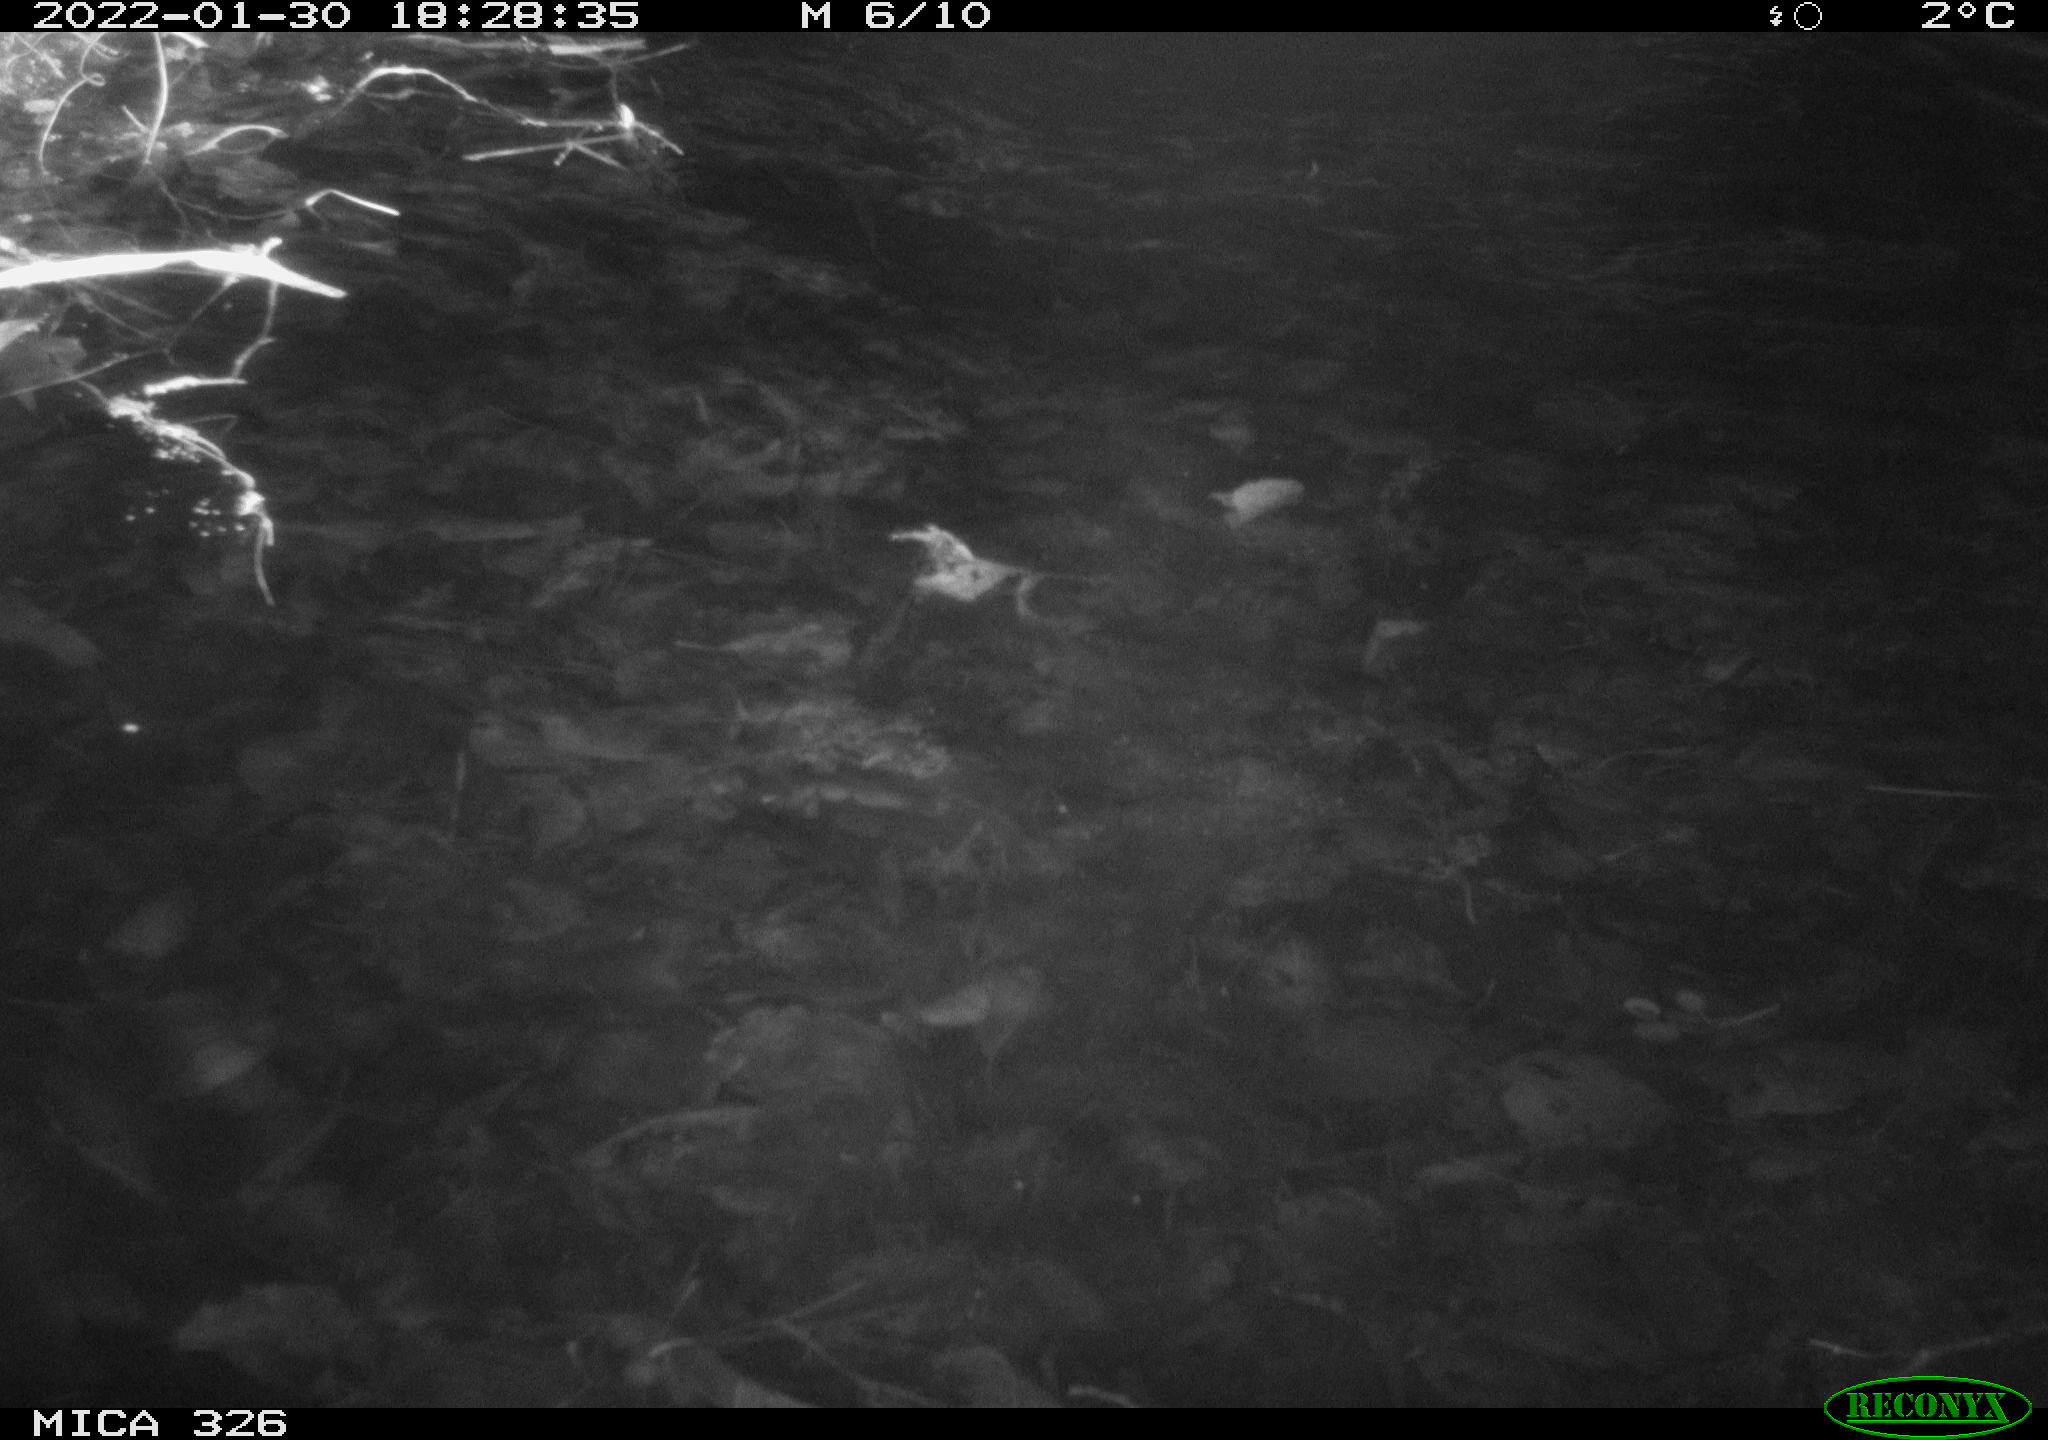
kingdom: Animalia
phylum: Chordata
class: Mammalia
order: Rodentia
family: Cricetidae
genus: Ondatra
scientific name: Ondatra zibethicus
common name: Muskrat
